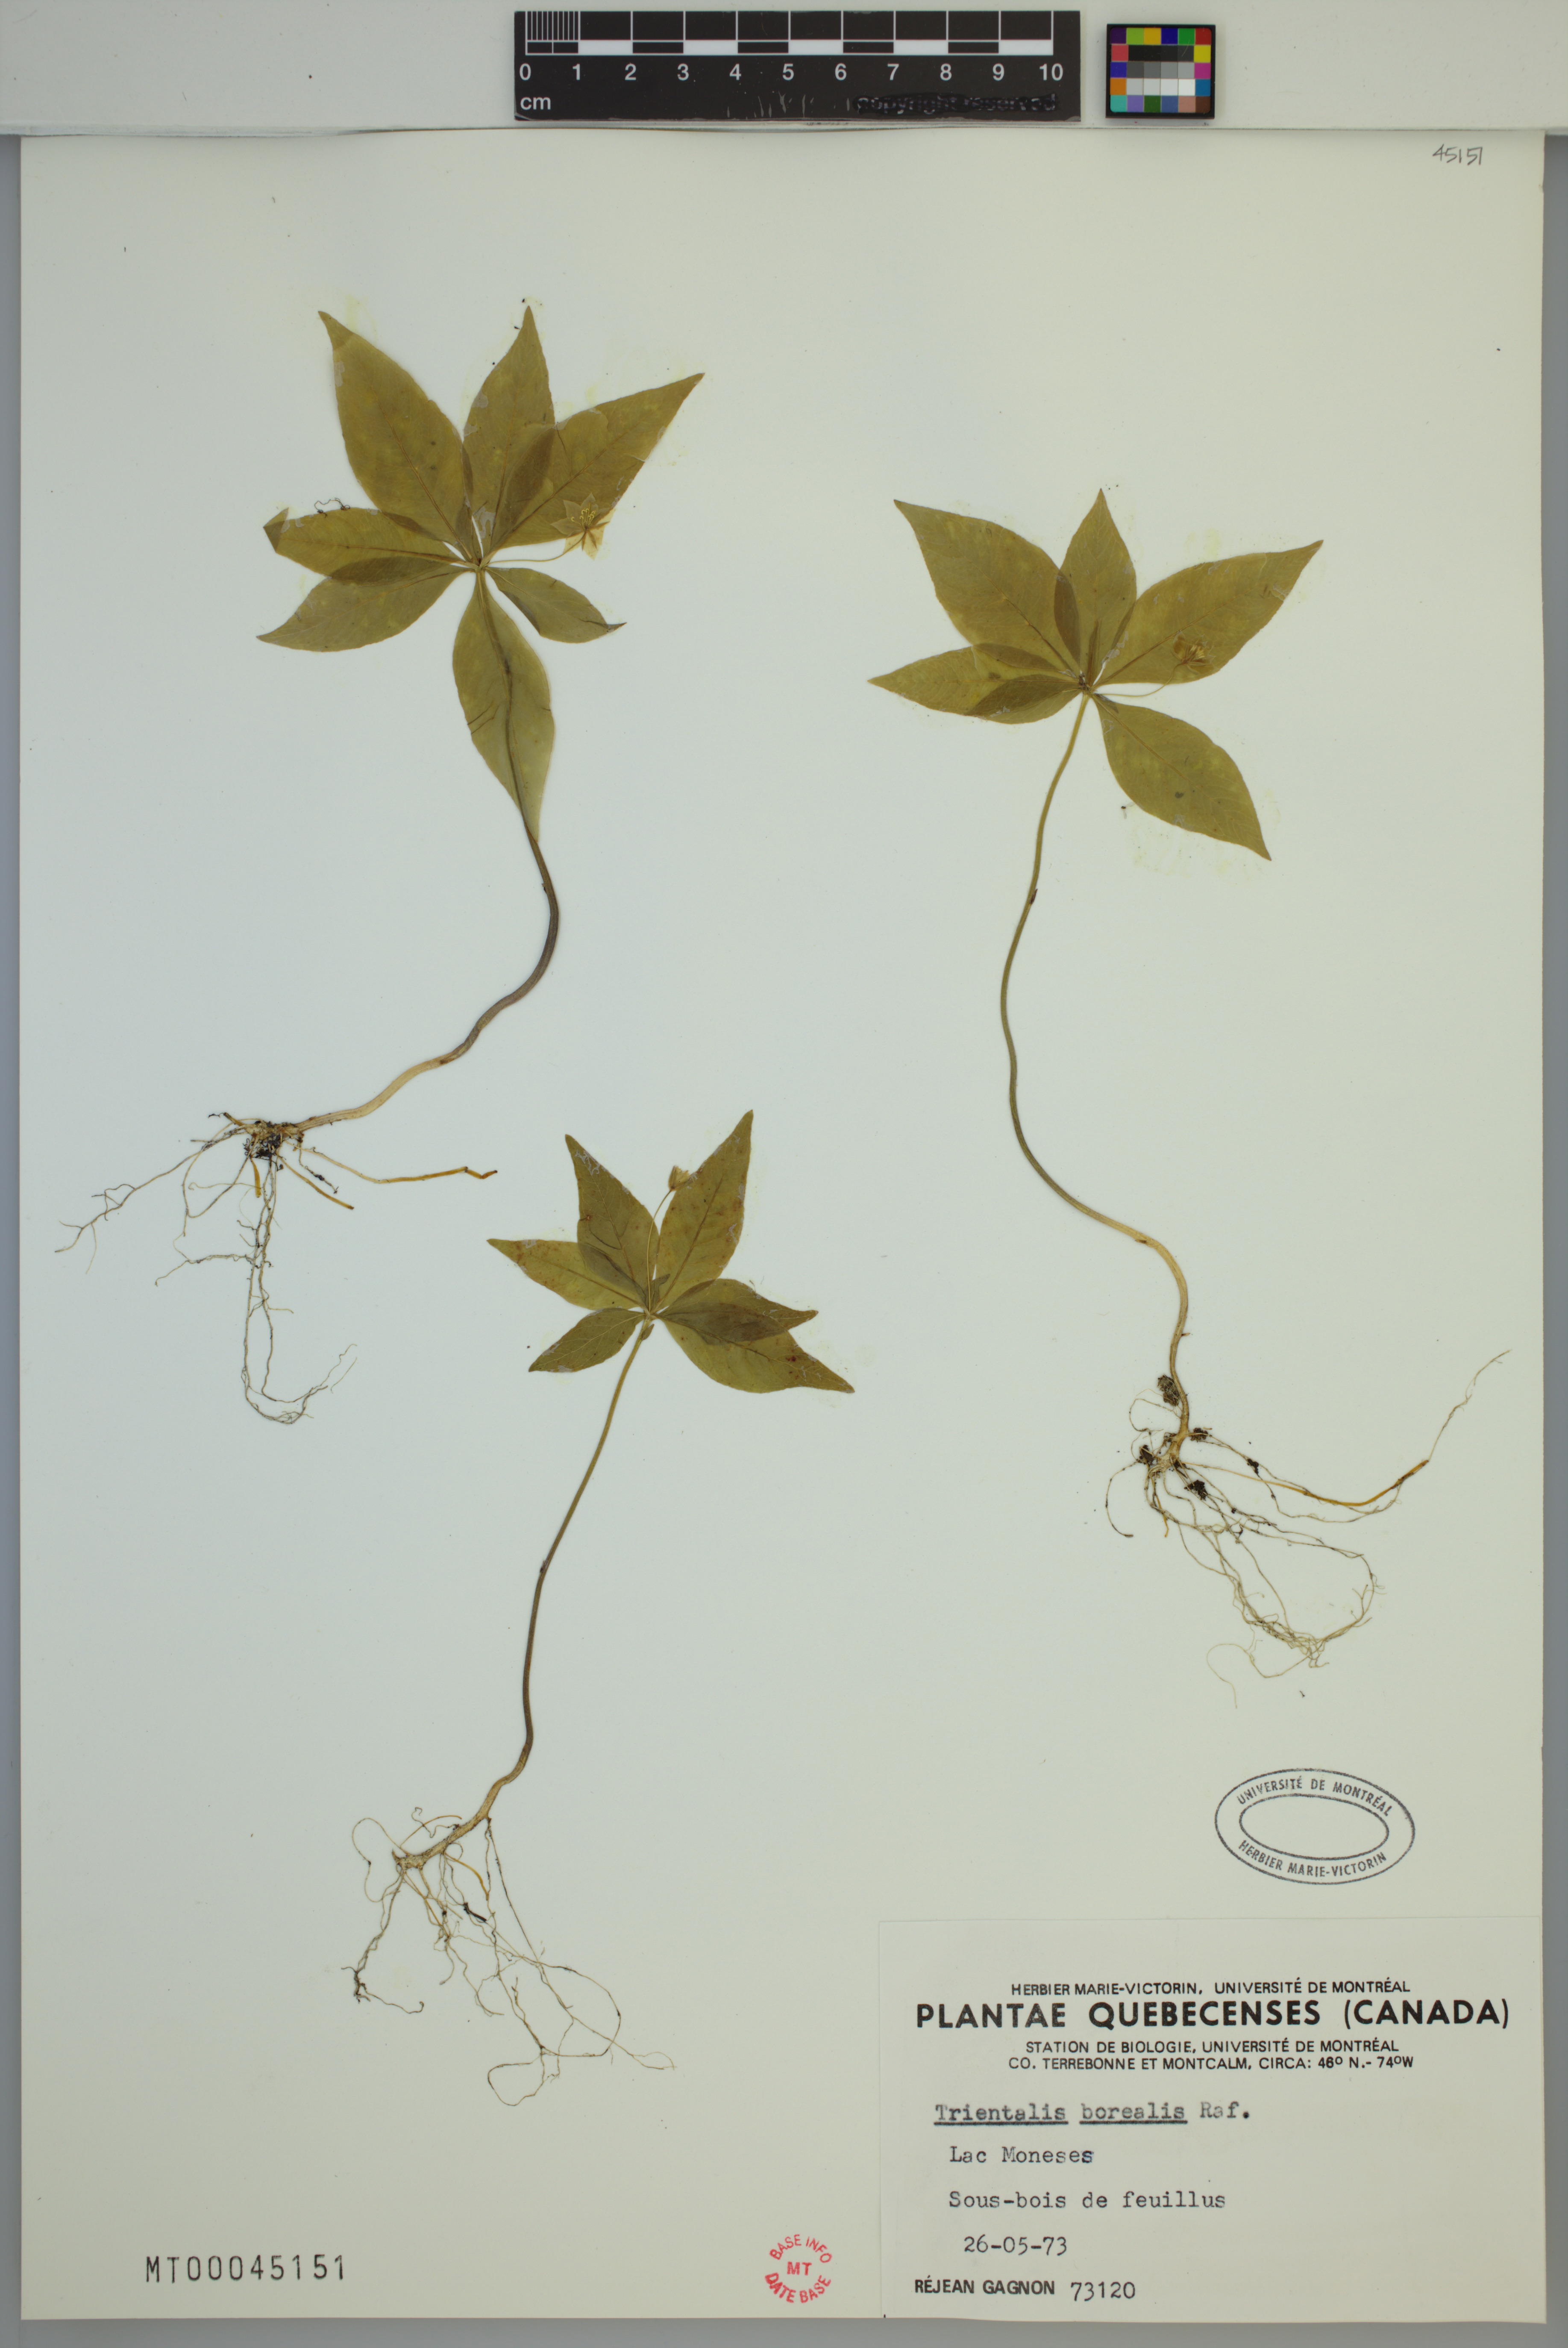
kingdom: Plantae
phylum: Tracheophyta
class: Magnoliopsida
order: Ericales
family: Primulaceae
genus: Lysimachia
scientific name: Lysimachia borealis
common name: American starflower
